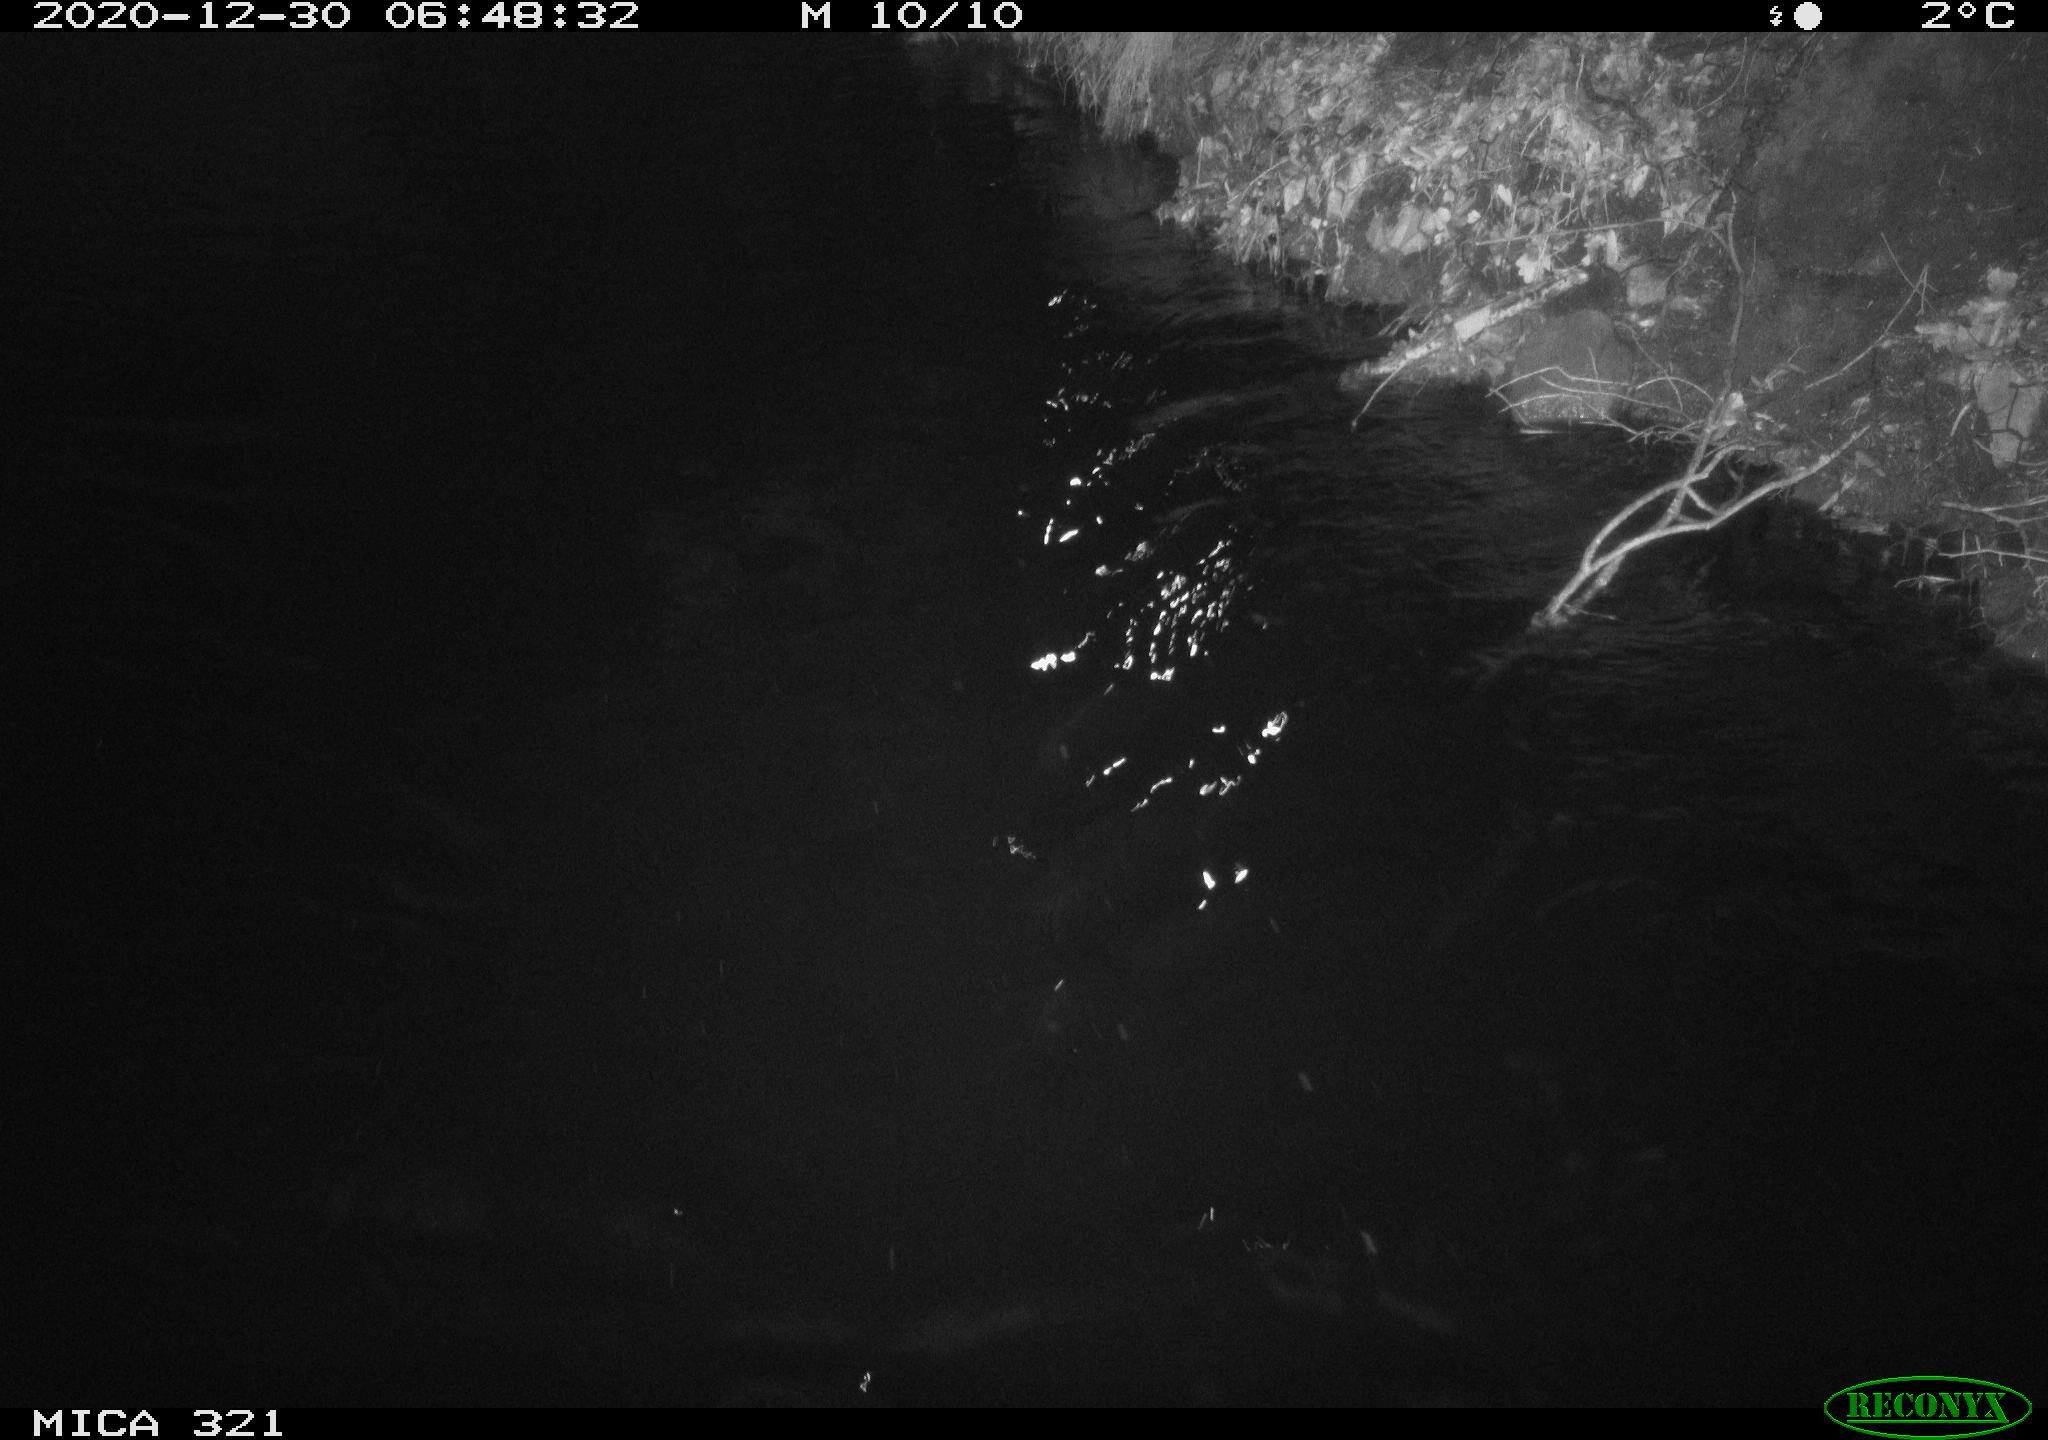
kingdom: Animalia
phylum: Chordata
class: Aves
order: Anseriformes
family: Anatidae
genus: Anas
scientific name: Anas platyrhynchos
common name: Mallard
